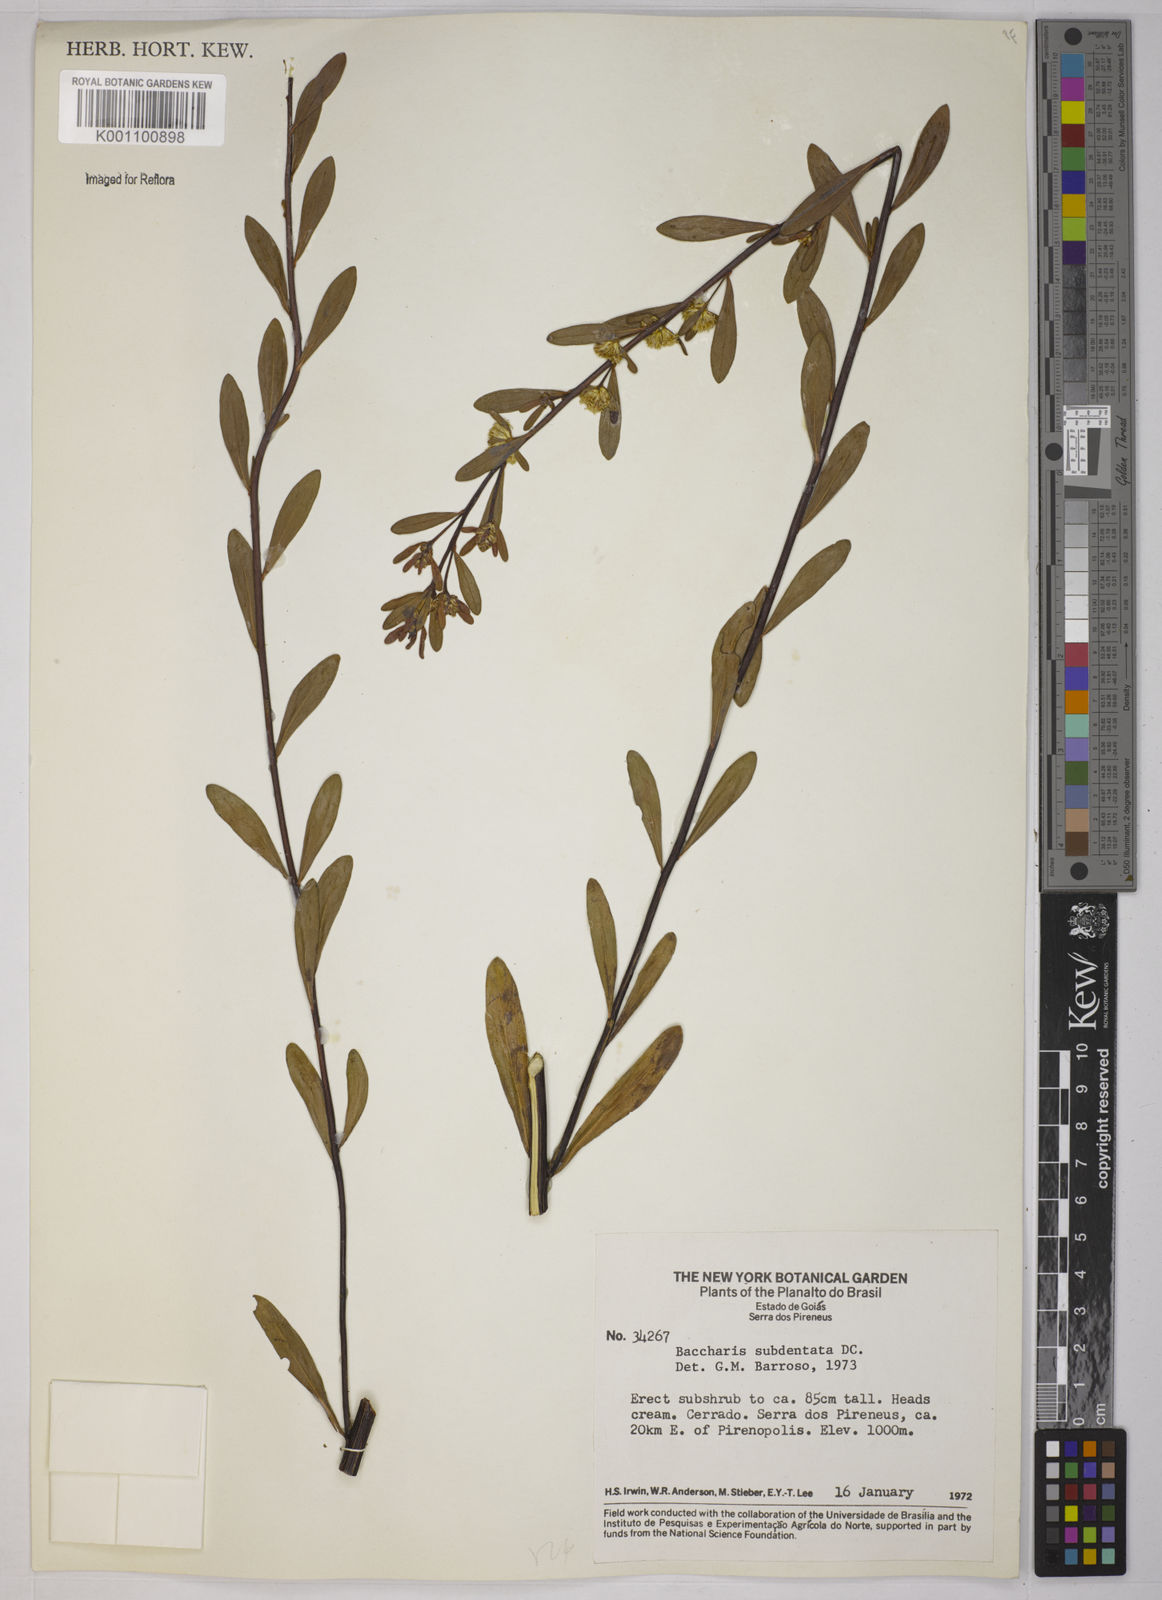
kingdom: Plantae
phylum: Tracheophyta
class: Magnoliopsida
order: Asterales
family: Asteraceae
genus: Baccharis
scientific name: Baccharis subdentata
